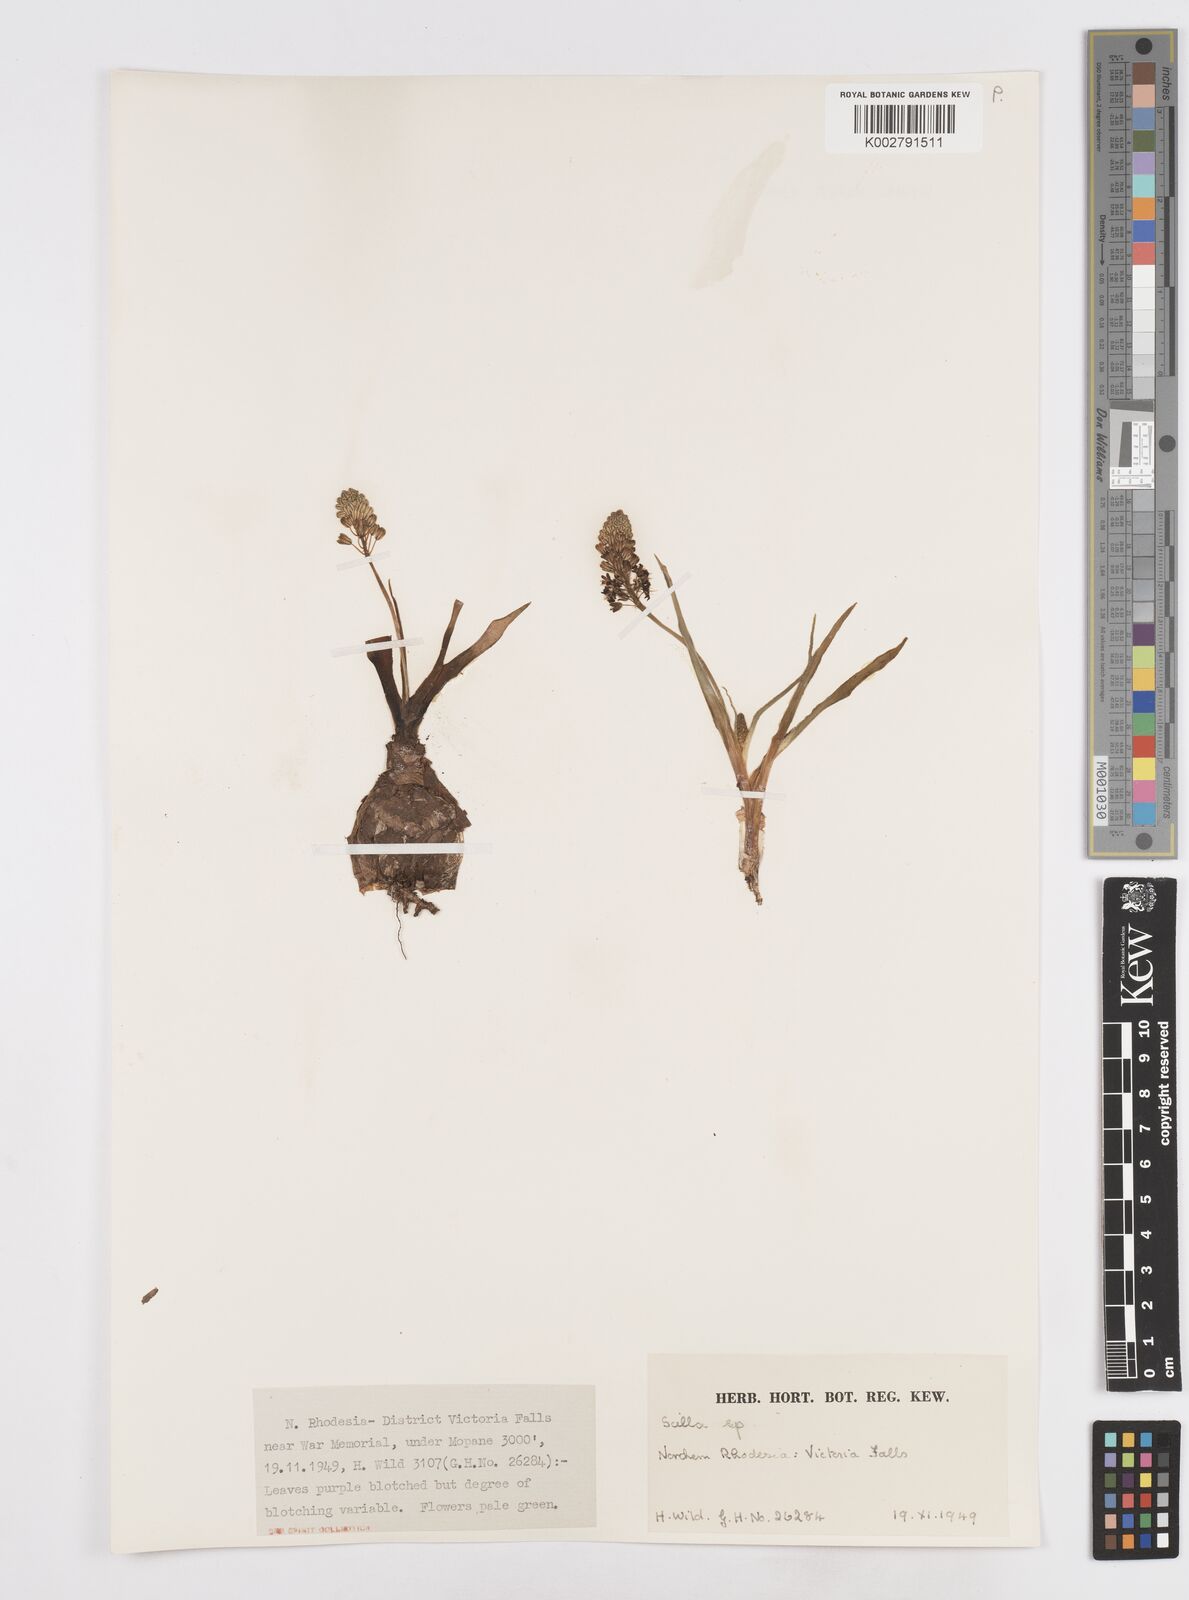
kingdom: Plantae
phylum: Tracheophyta
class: Liliopsida
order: Asparagales
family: Asparagaceae
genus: Scilla
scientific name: Scilla
